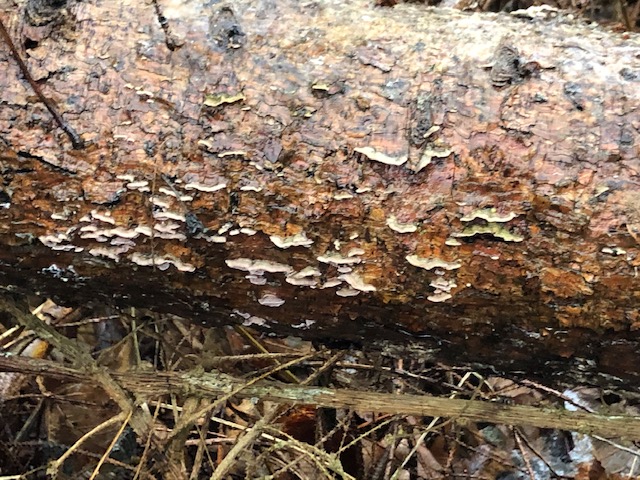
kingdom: Fungi
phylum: Basidiomycota
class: Agaricomycetes
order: Hymenochaetales
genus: Trichaptum
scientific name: Trichaptum abietinum
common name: almindelig violporesvamp
